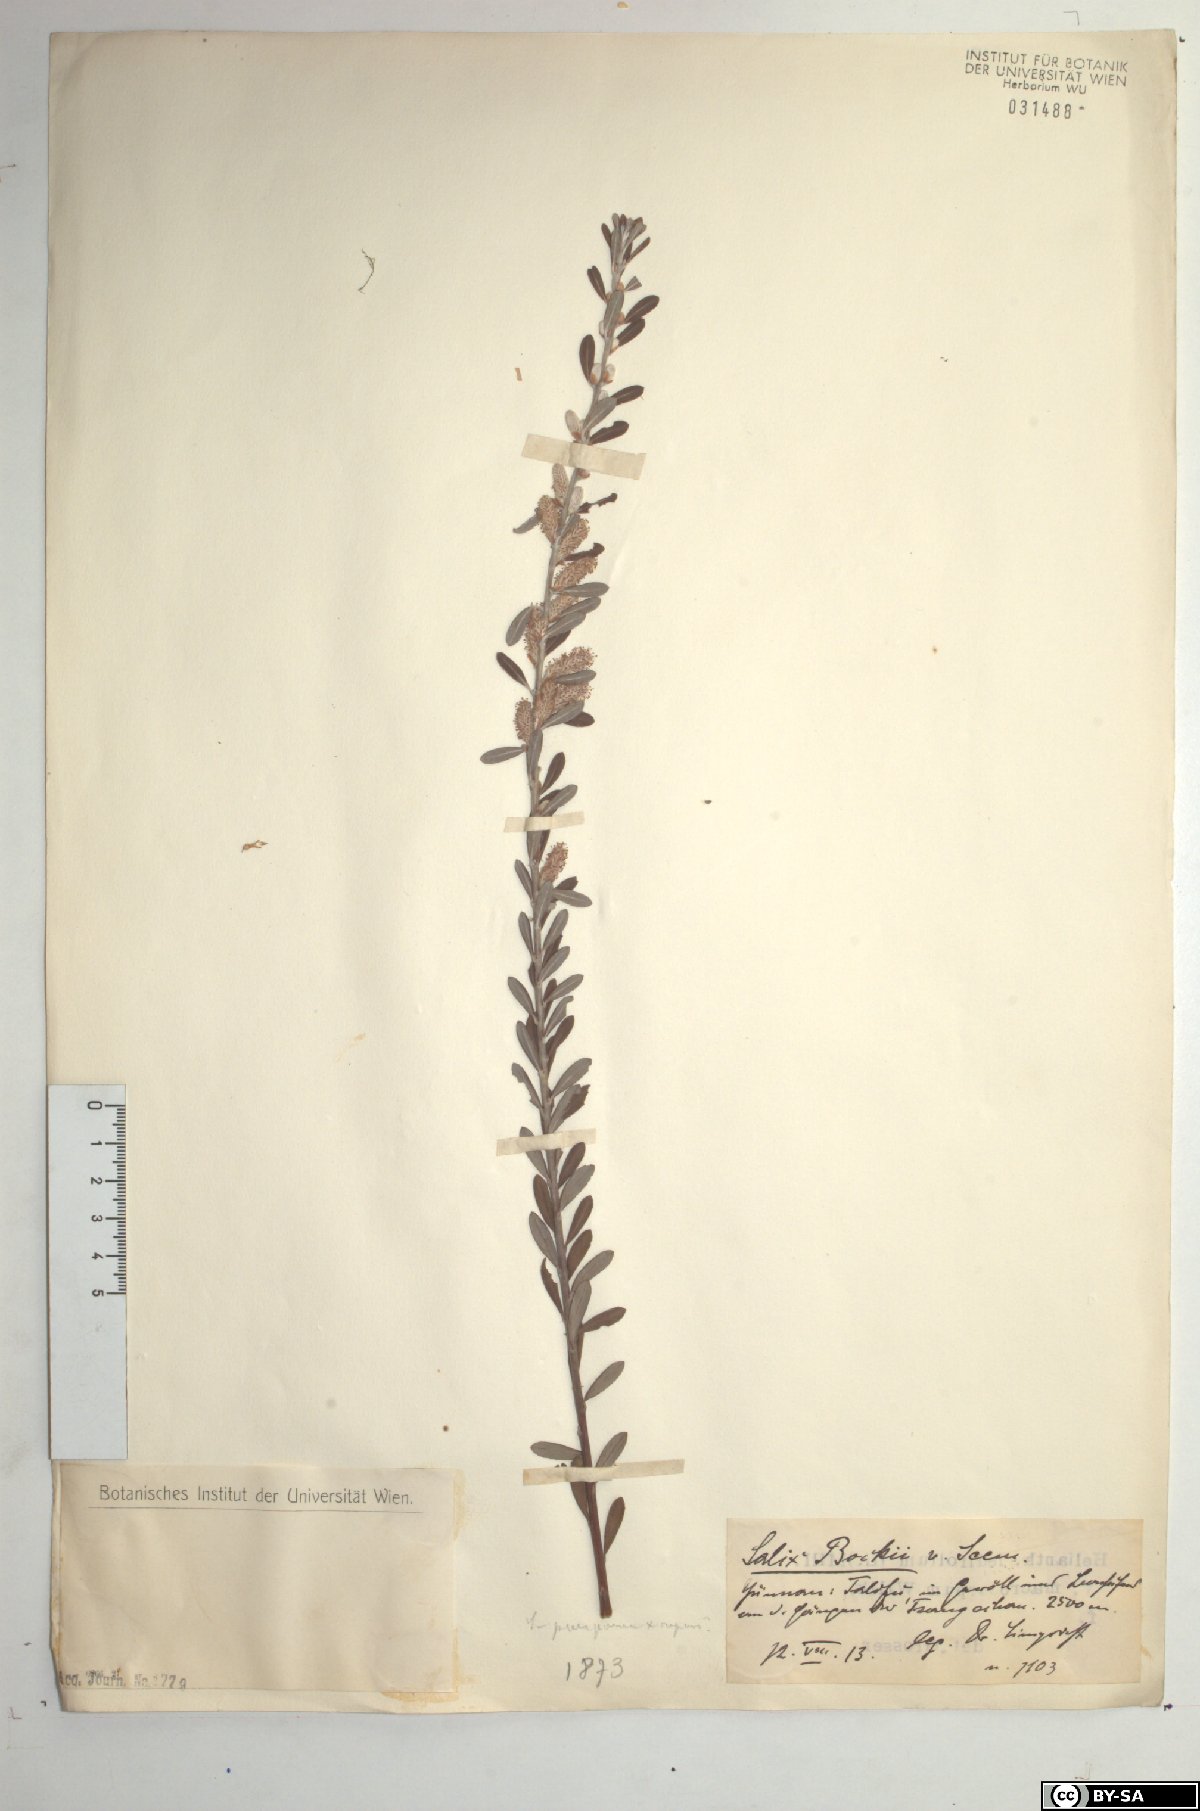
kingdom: Plantae
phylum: Tracheophyta
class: Magnoliopsida
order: Malpighiales
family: Salicaceae
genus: Salix
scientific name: Salix variegata
